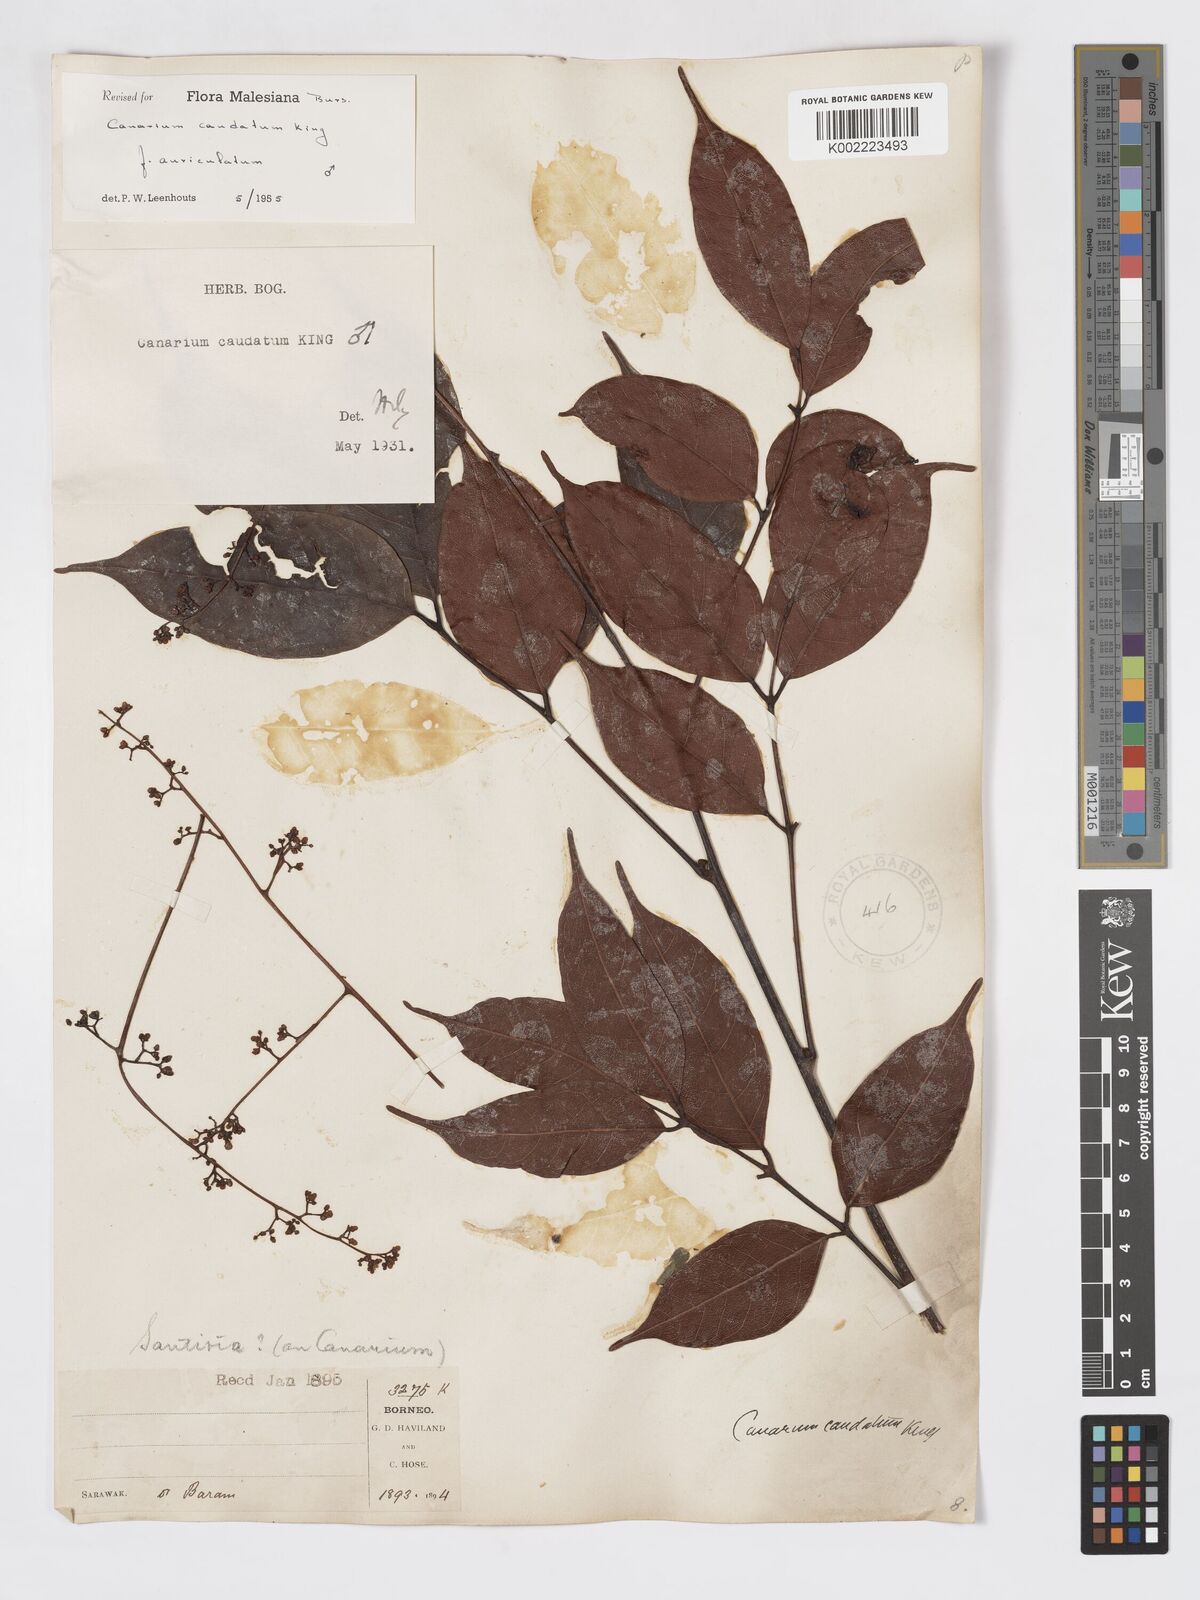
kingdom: Plantae
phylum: Tracheophyta
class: Magnoliopsida
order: Sapindales
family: Burseraceae
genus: Canarium
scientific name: Canarium caudatum
